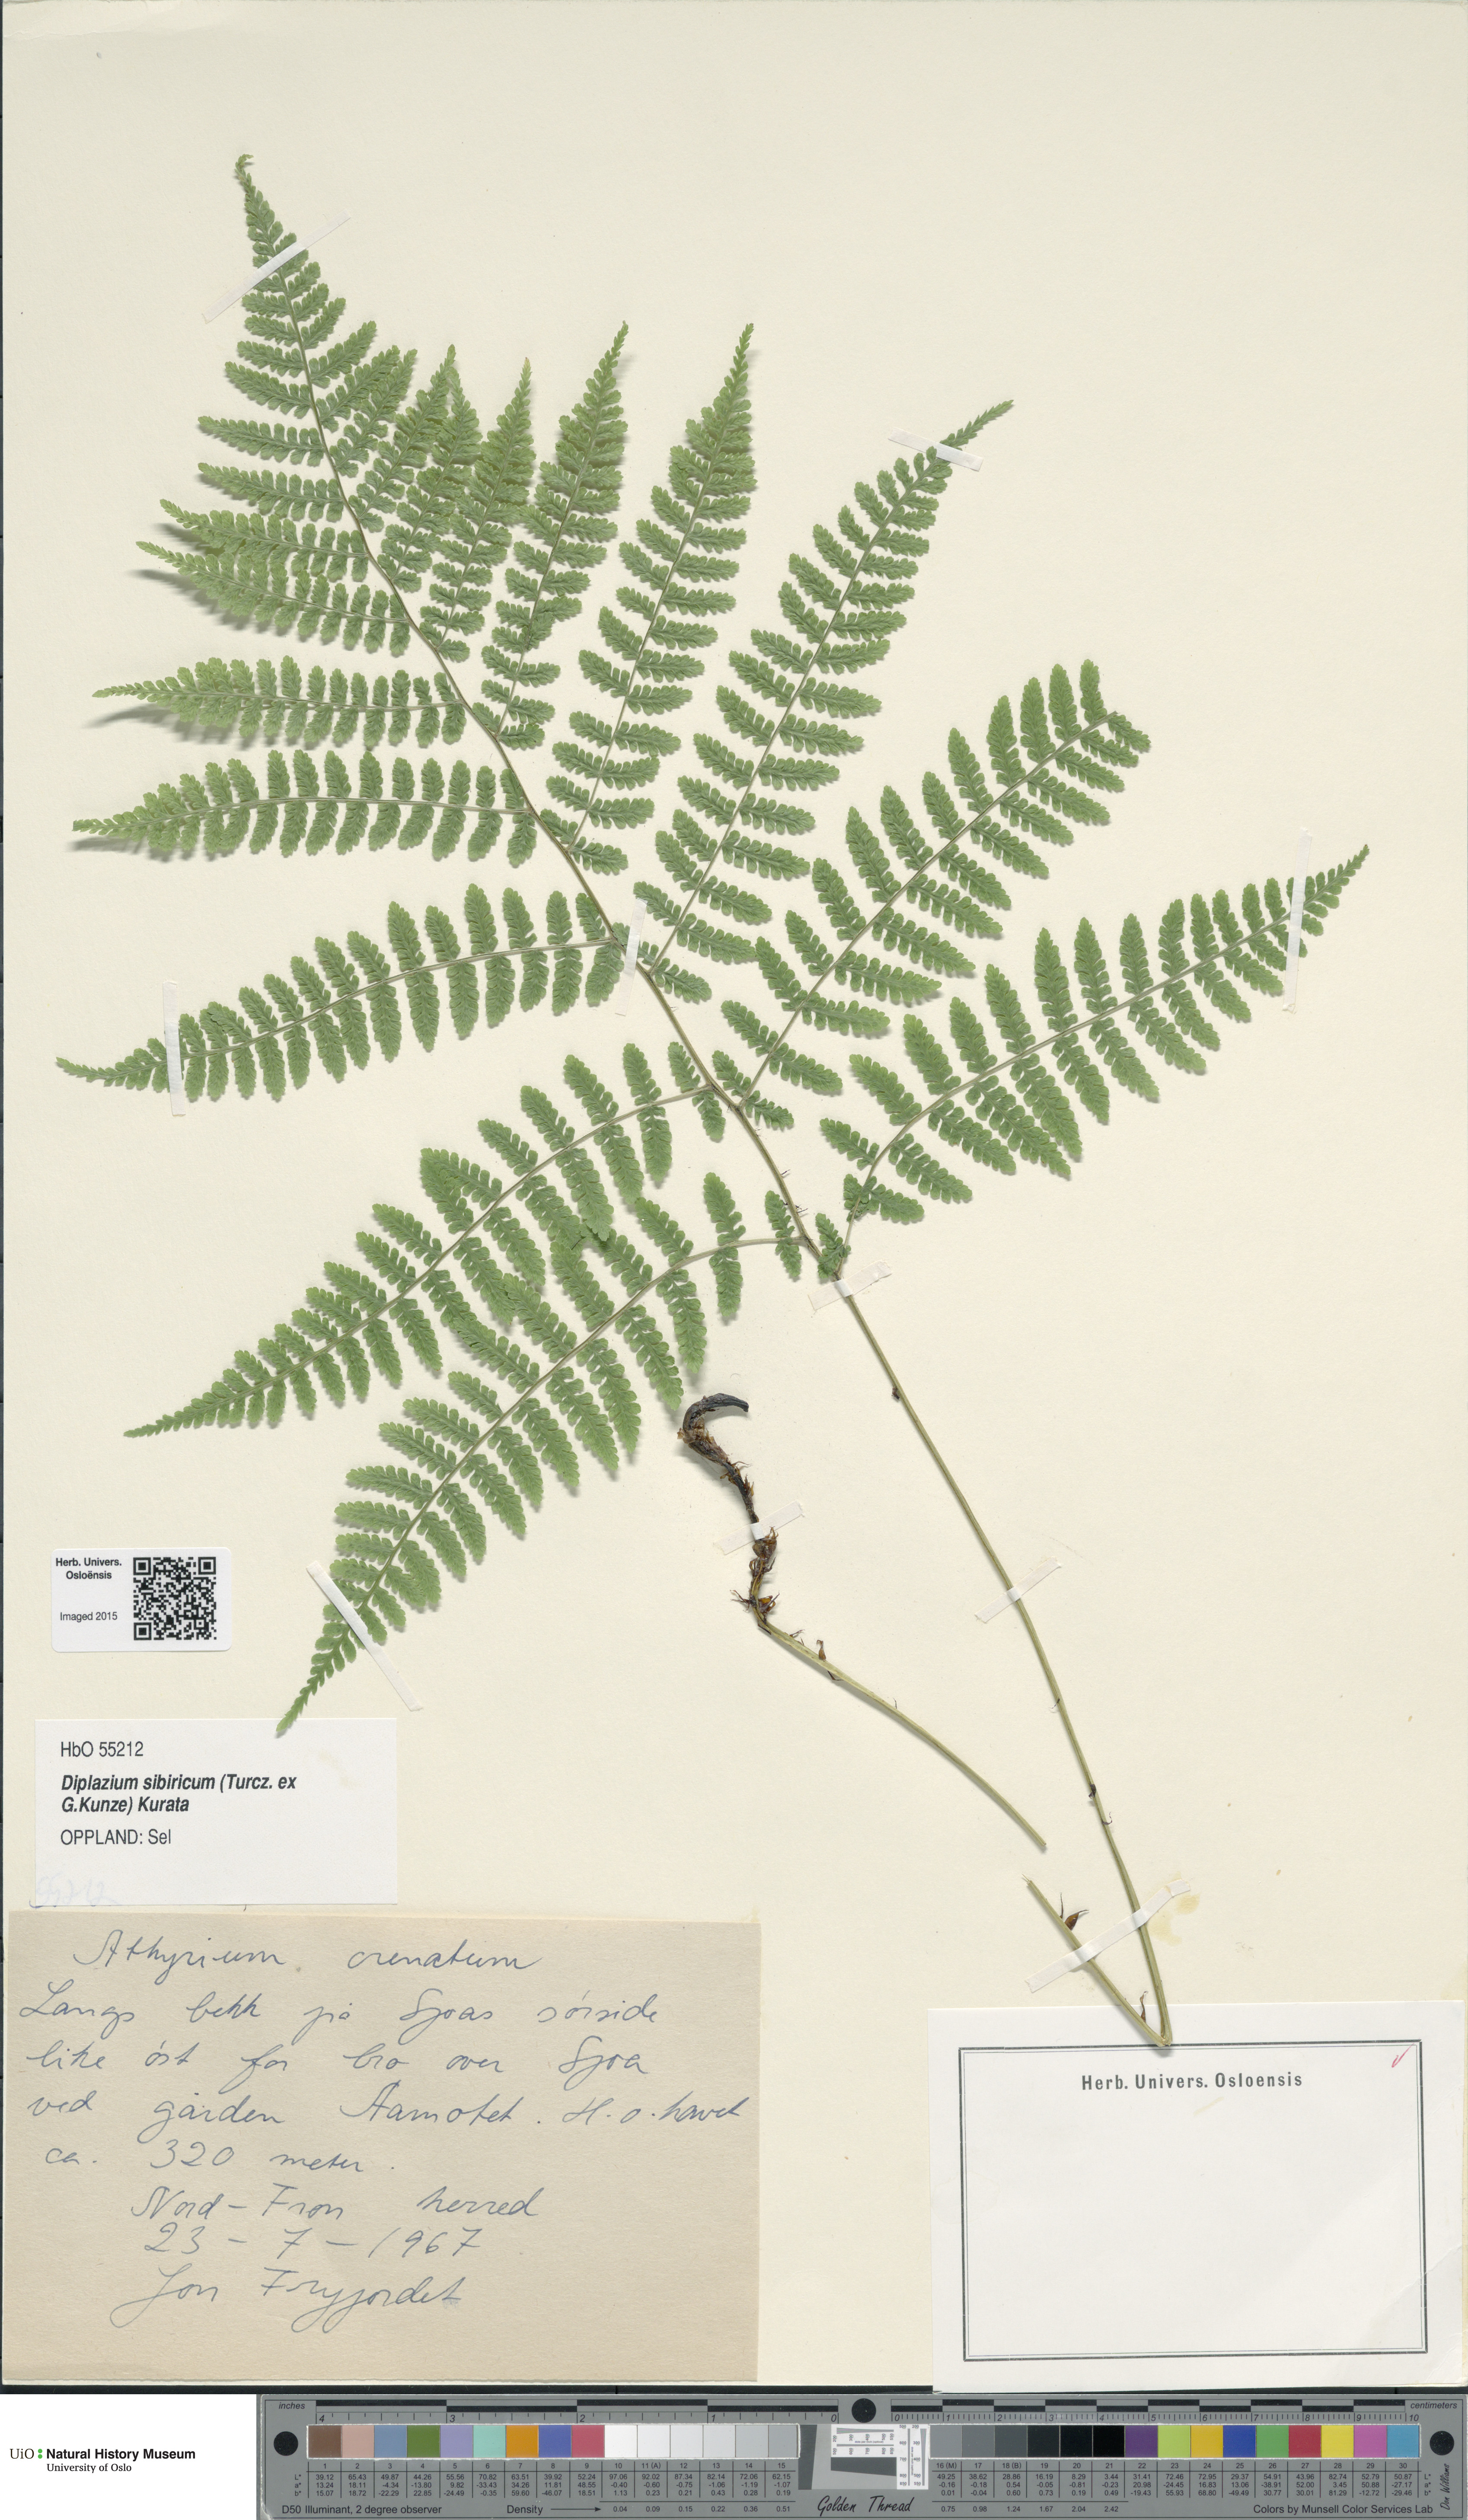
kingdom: Plantae
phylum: Tracheophyta
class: Polypodiopsida
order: Polypodiales
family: Athyriaceae
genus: Diplazium
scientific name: Diplazium sibiricum
